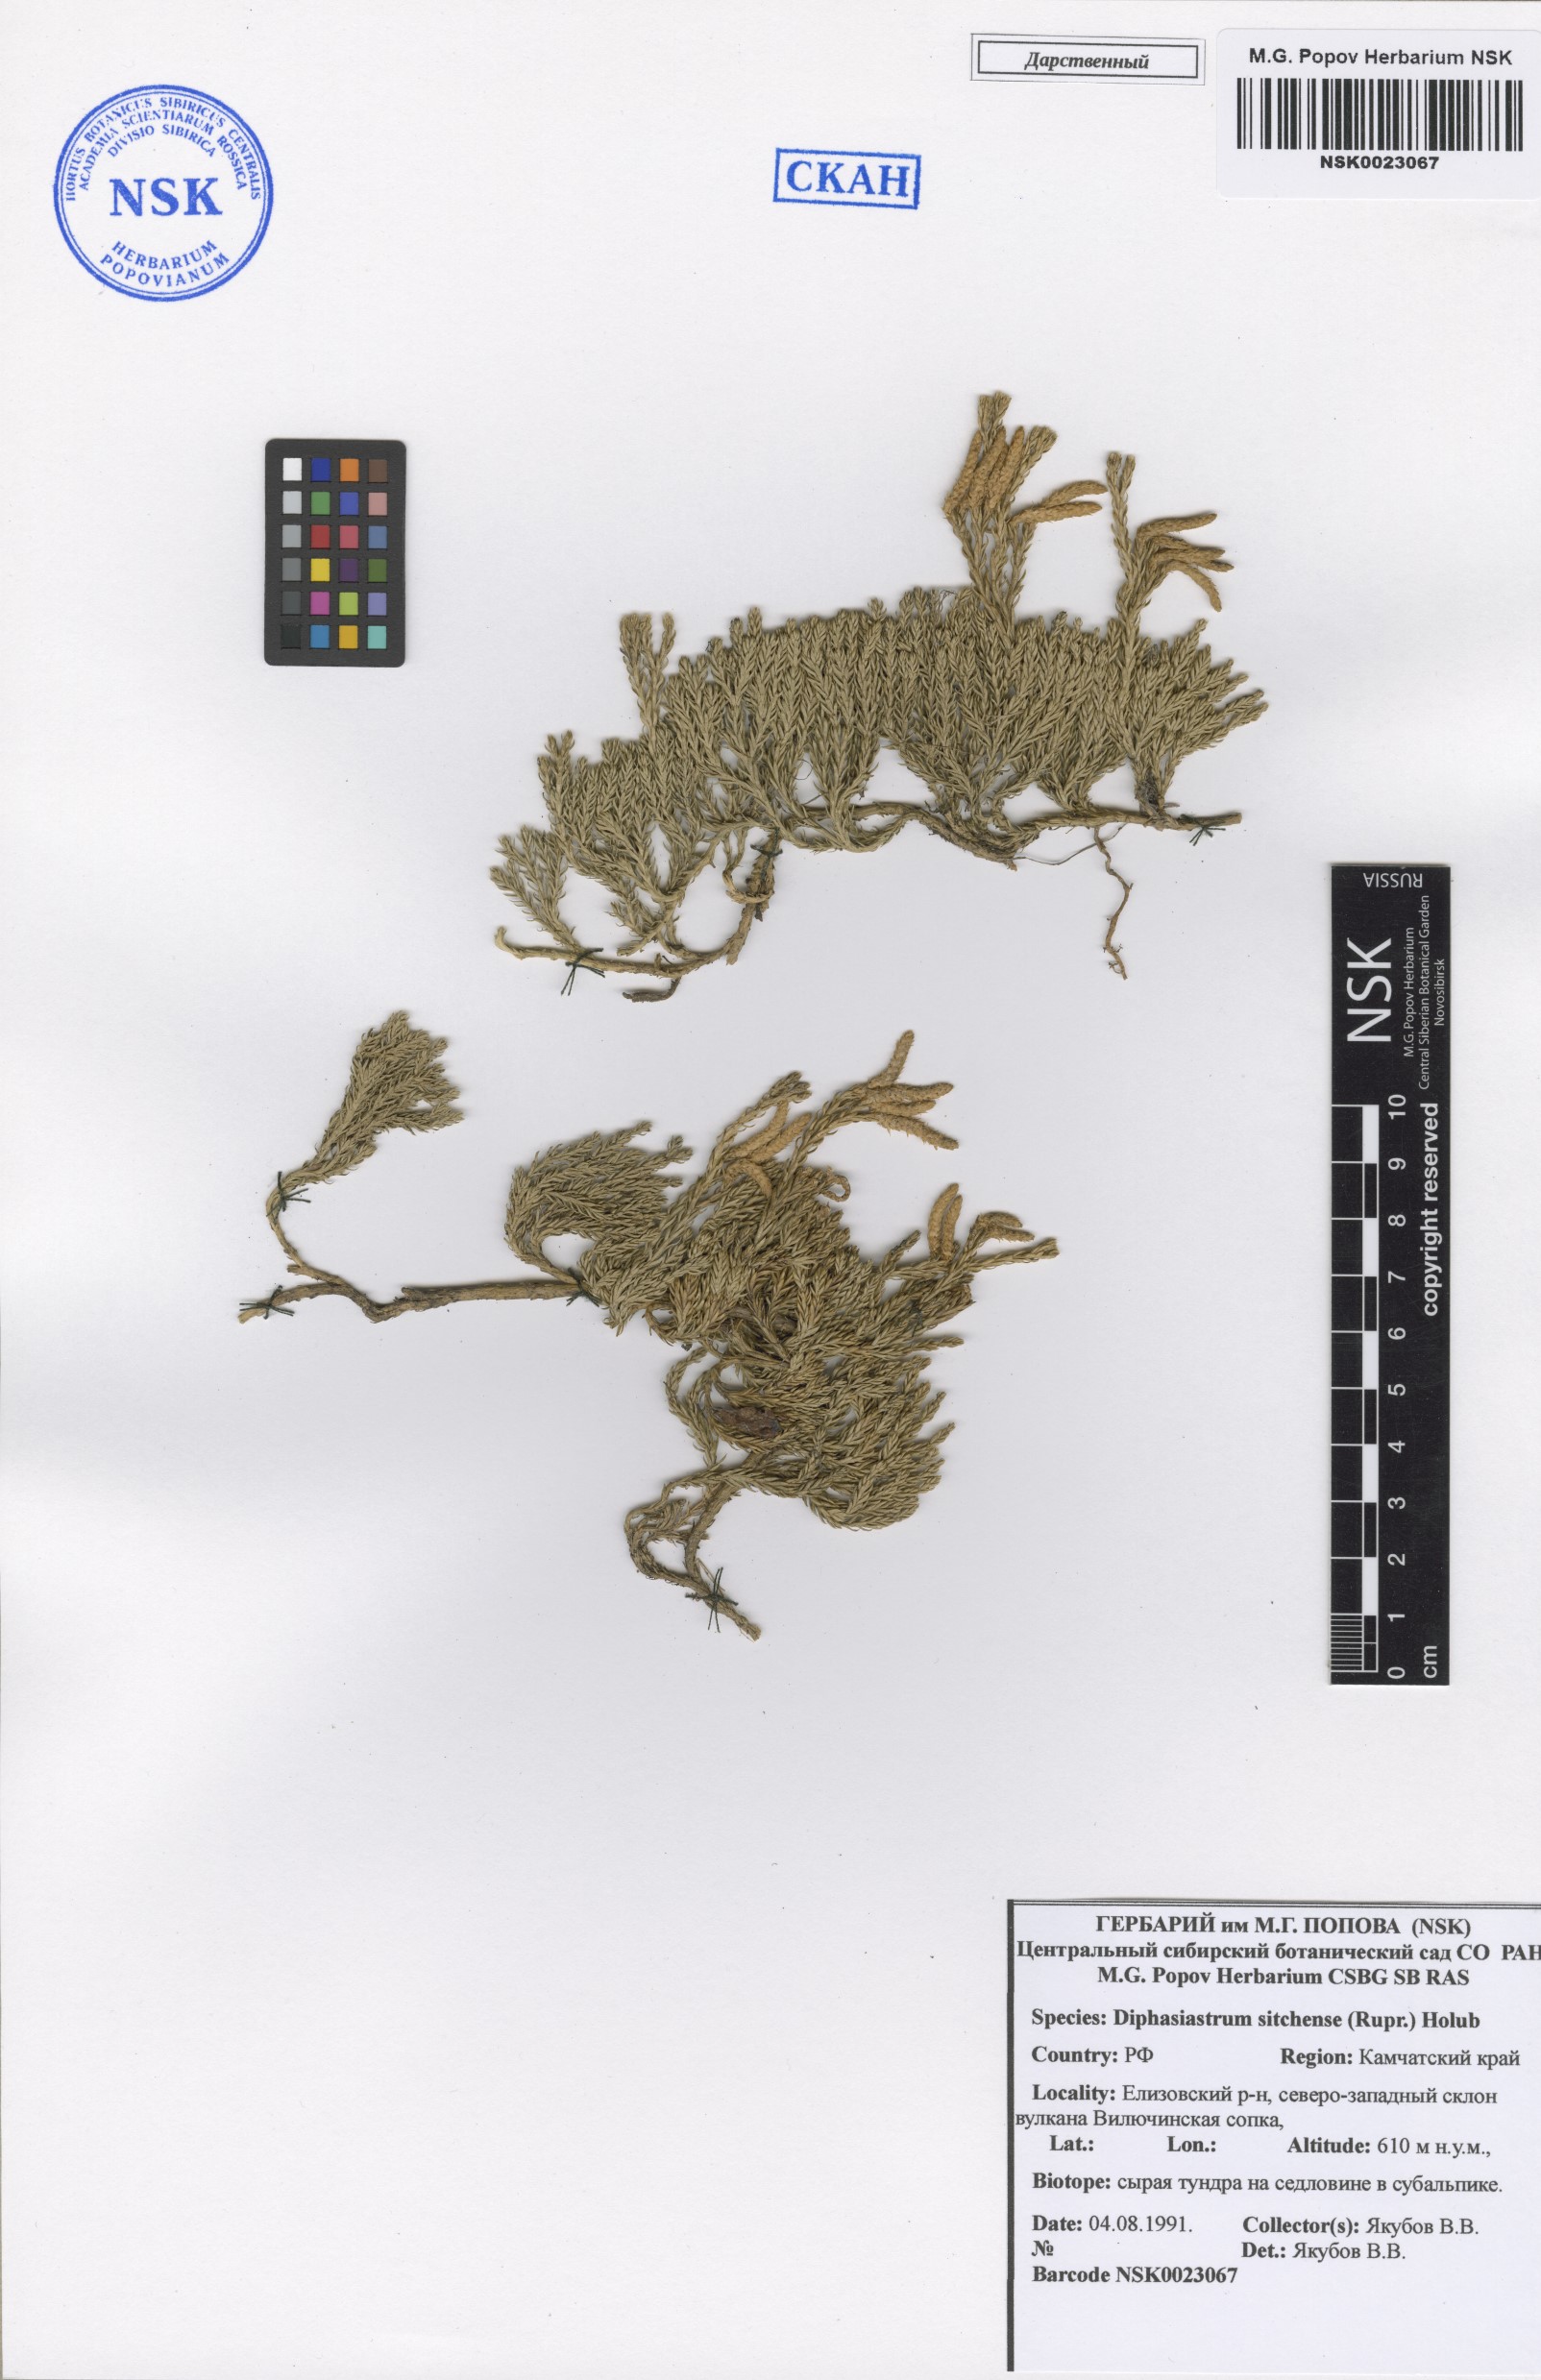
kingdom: Plantae
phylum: Tracheophyta
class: Lycopodiopsida
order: Lycopodiales
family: Lycopodiaceae
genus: Diphasiastrum
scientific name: Diphasiastrum sitchense
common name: Alaska clubmoss
